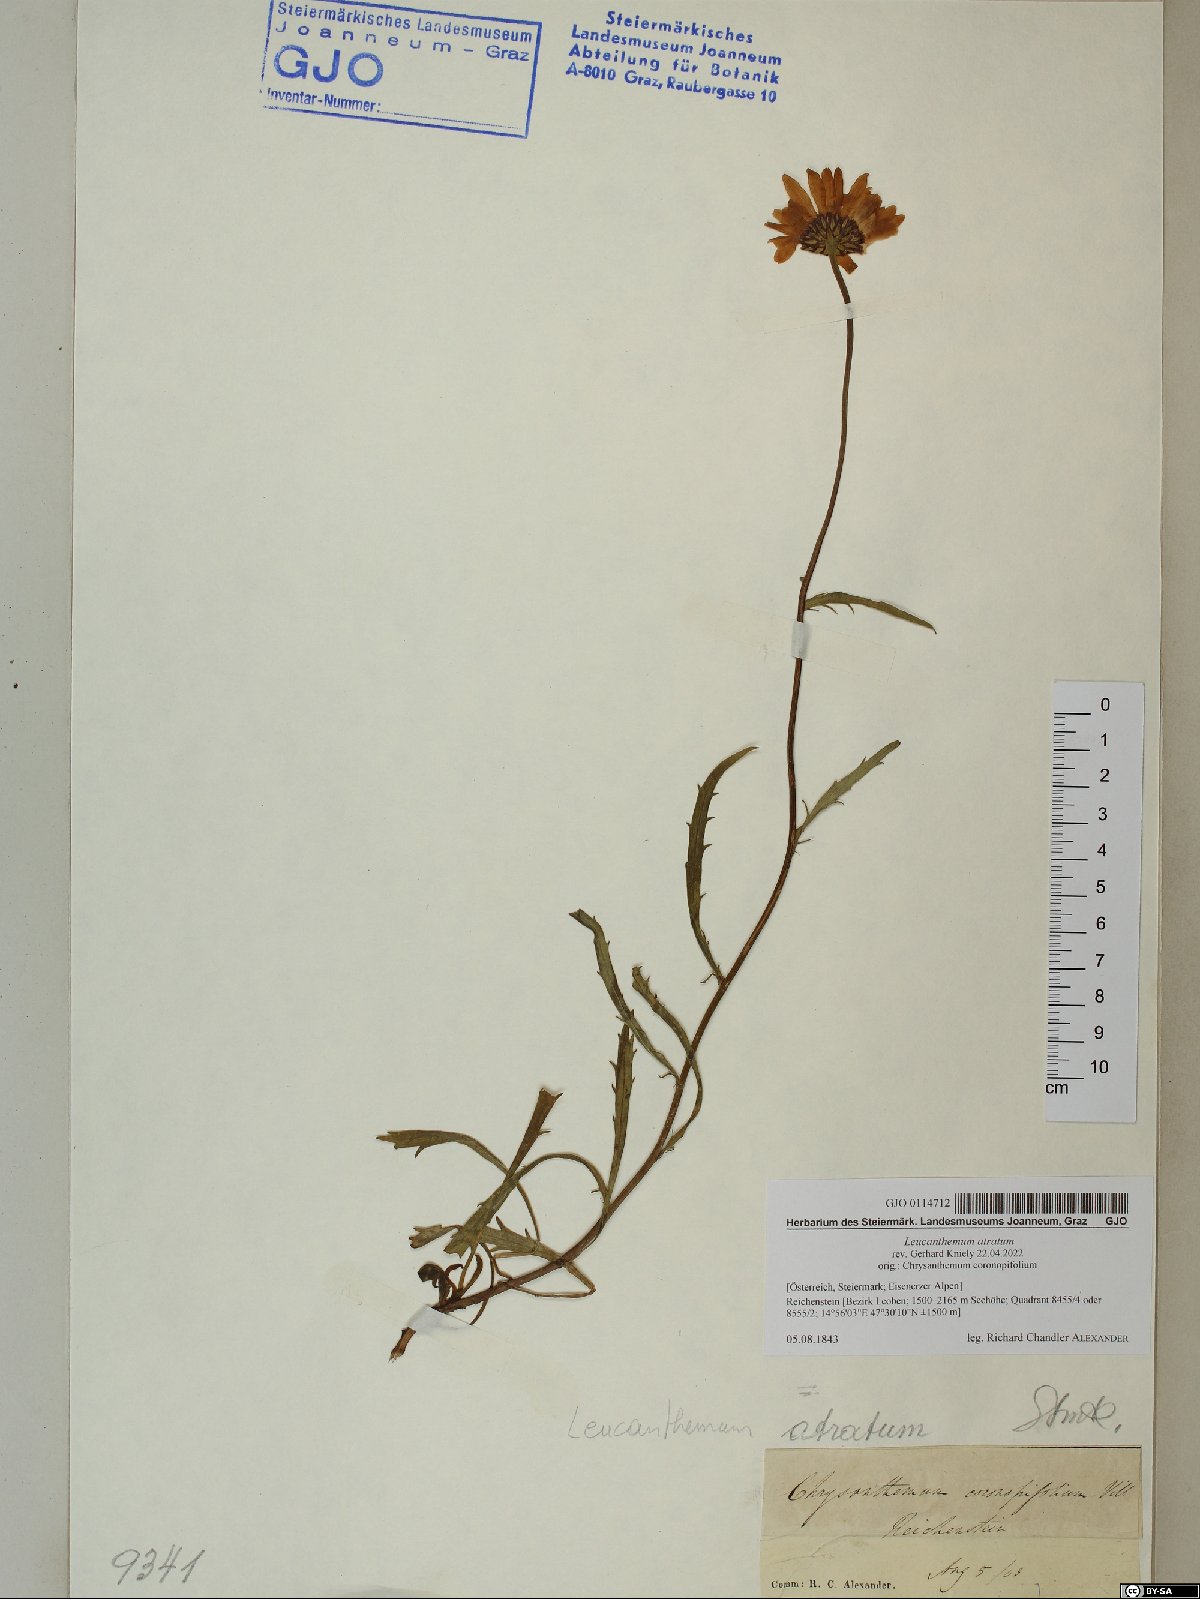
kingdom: Plantae
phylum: Tracheophyta
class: Magnoliopsida
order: Asterales
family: Asteraceae
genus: Leucanthemum
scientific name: Leucanthemum atratum
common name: Saw-leaved moon-daisy
